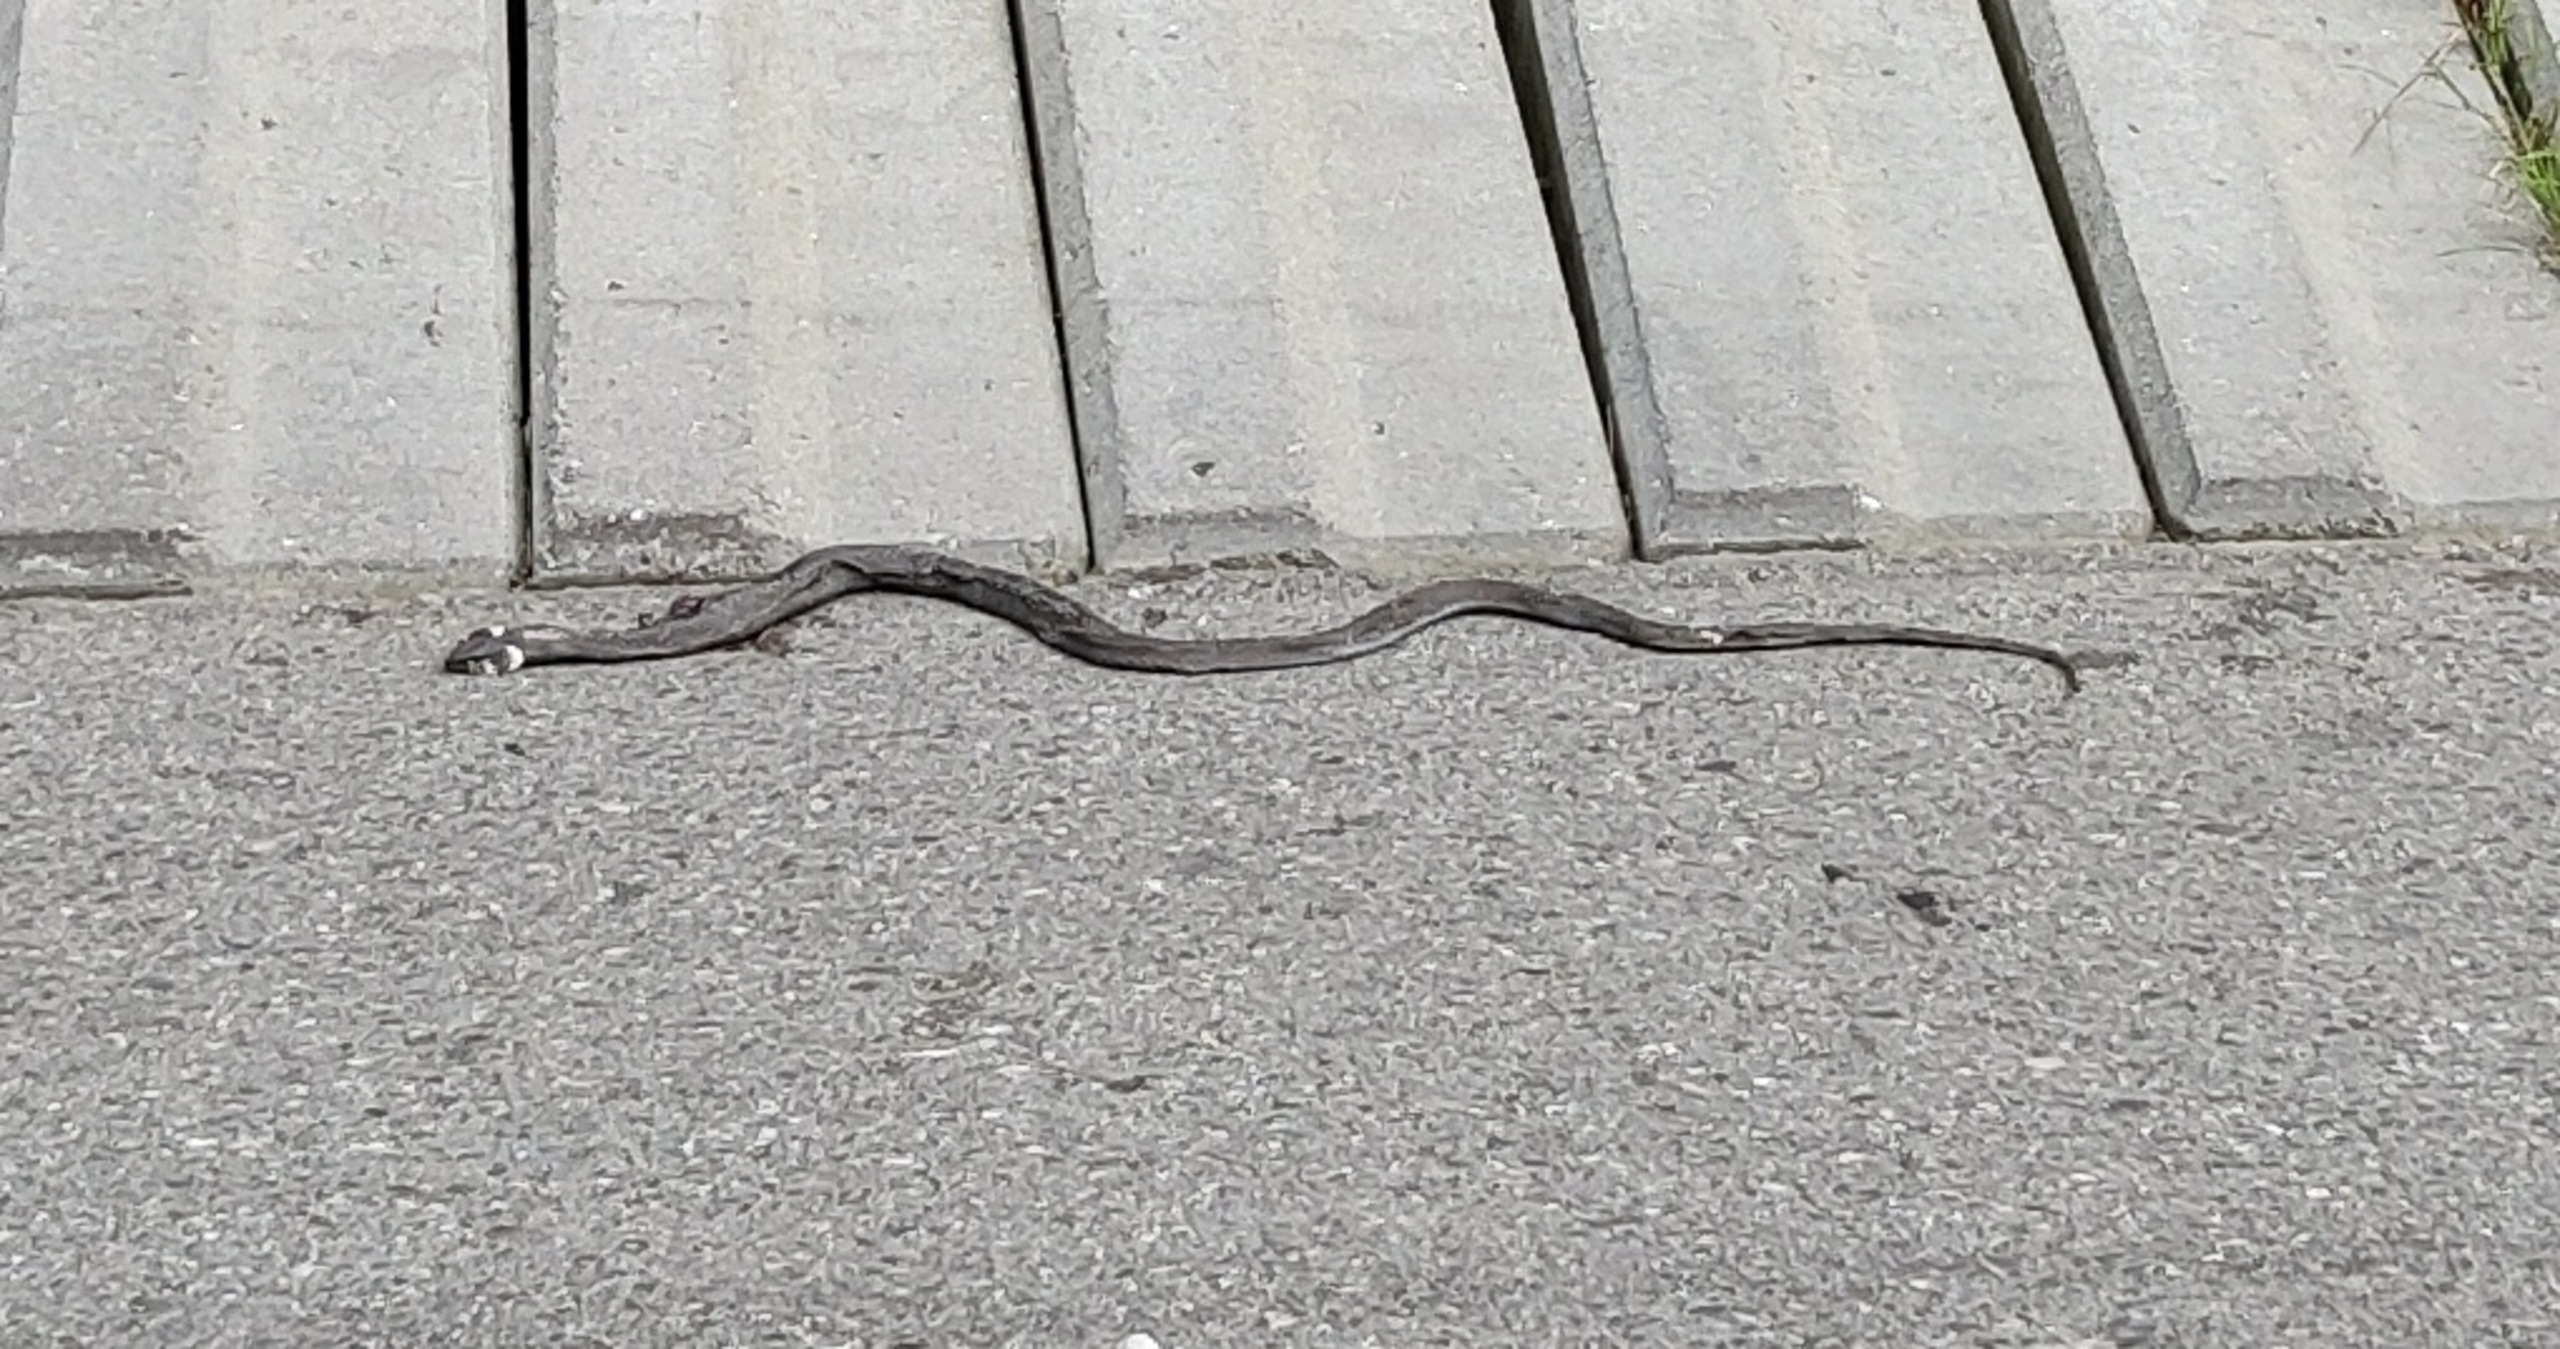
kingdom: Animalia
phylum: Chordata
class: Squamata
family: Colubridae
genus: Natrix
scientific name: Natrix natrix
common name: Snog
